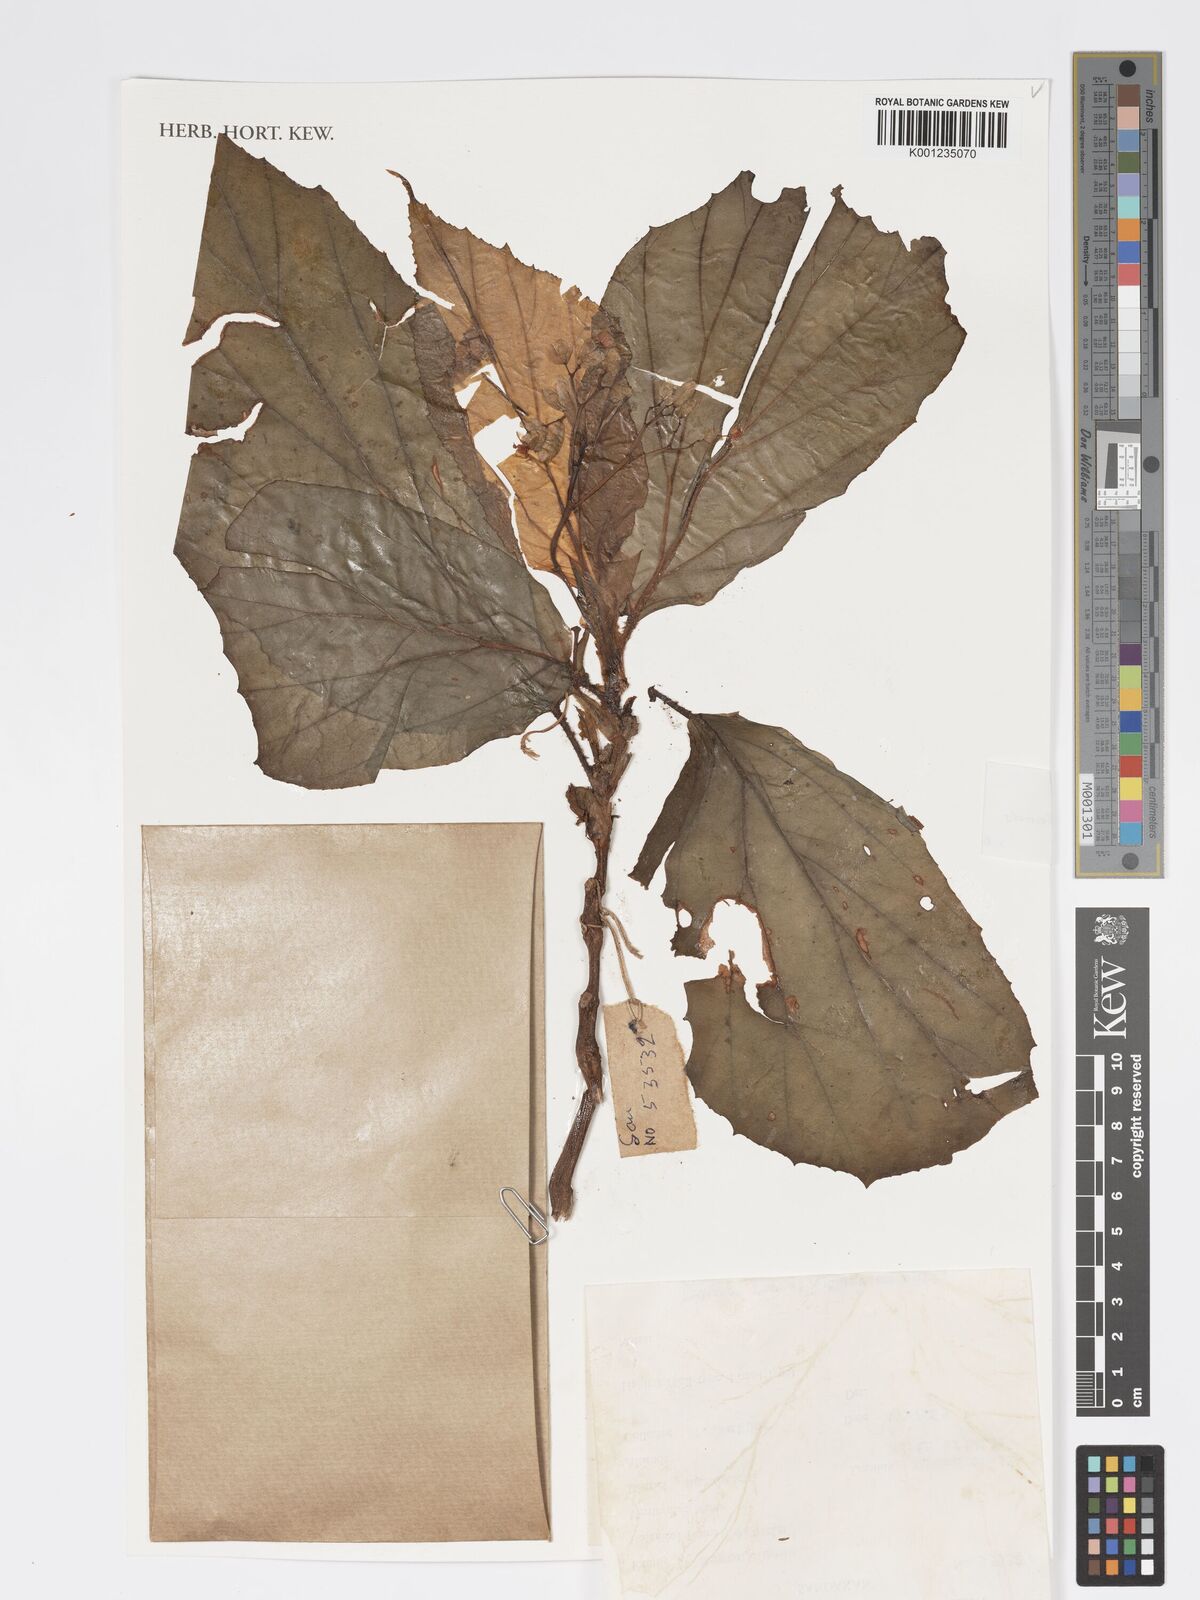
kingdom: Plantae
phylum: Tracheophyta
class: Magnoliopsida
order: Cucurbitales
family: Begoniaceae
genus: Begonia
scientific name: Begonia imbricata
